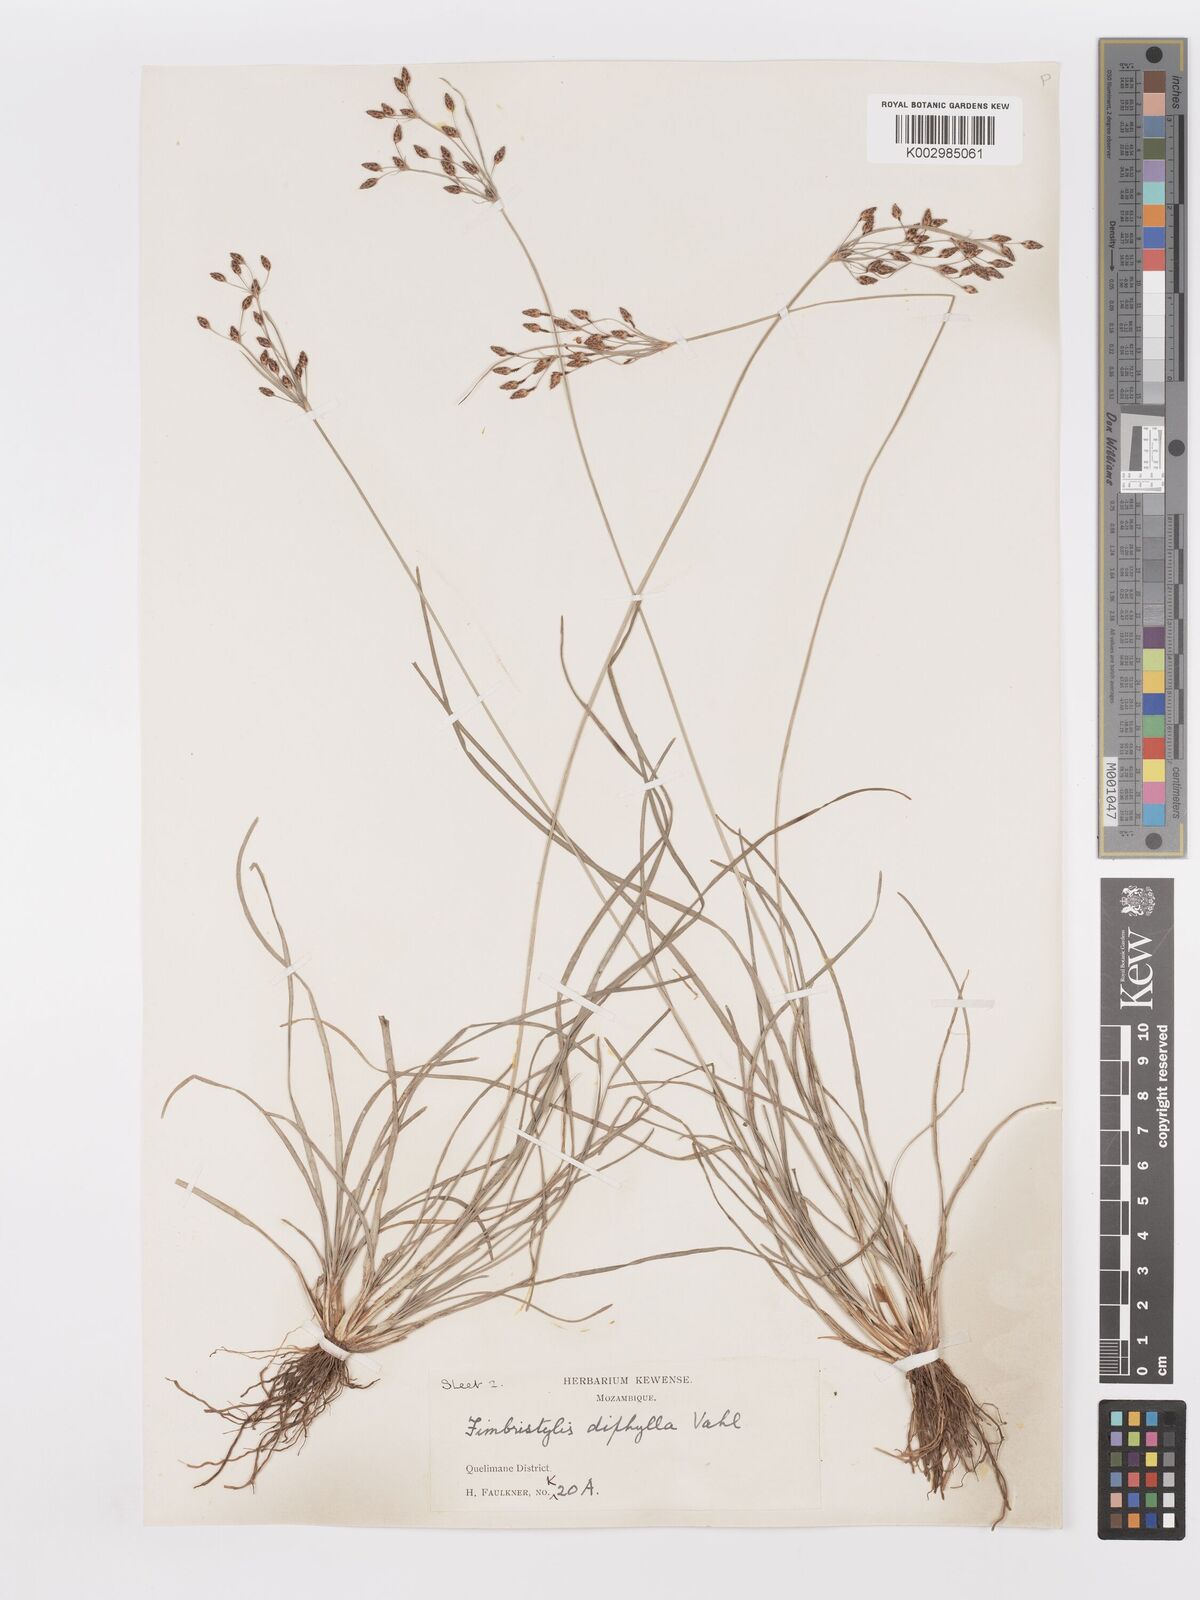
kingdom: Plantae
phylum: Tracheophyta
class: Liliopsida
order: Poales
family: Cyperaceae
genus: Fimbristylis
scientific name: Fimbristylis dichotoma
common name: Forked fimbry
